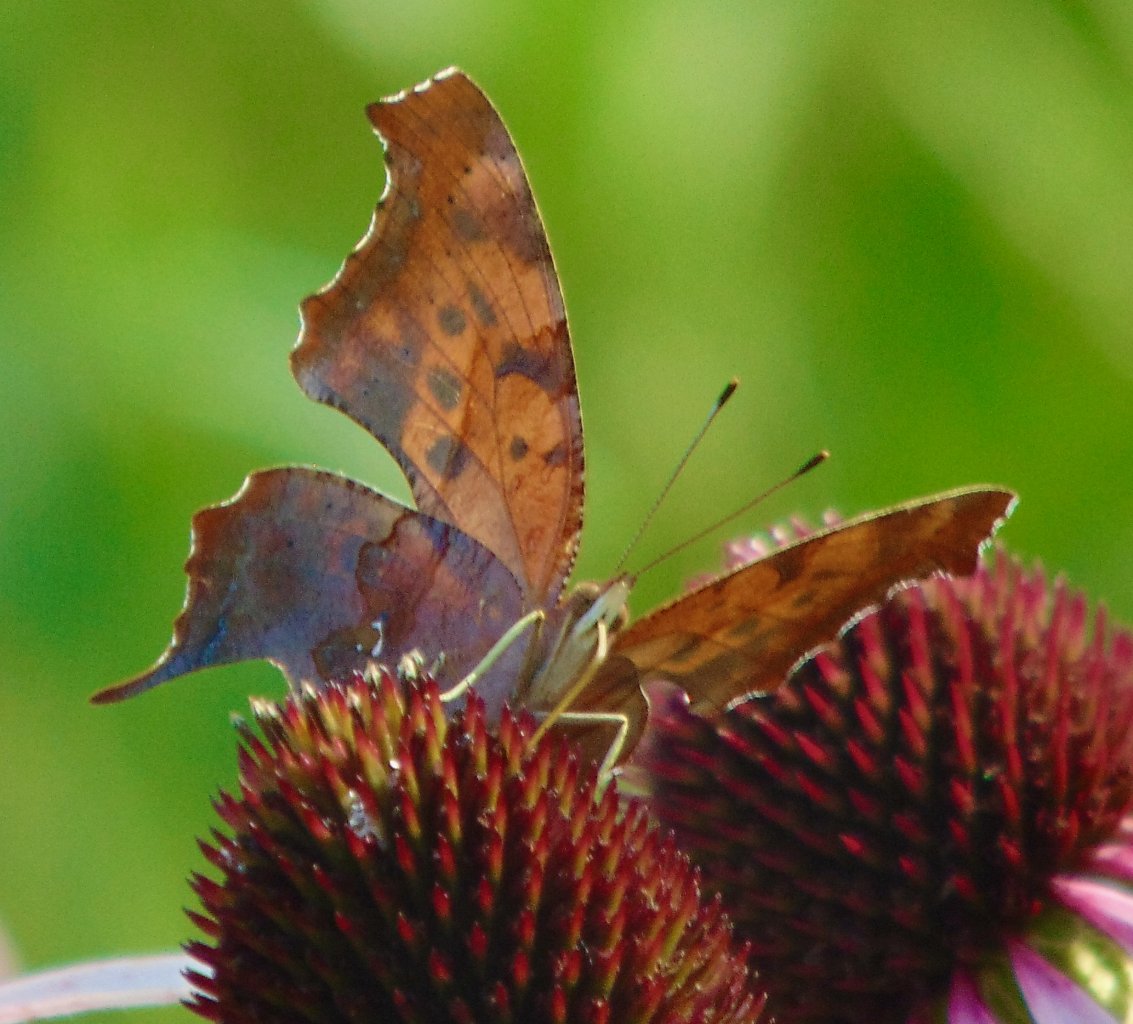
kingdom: Animalia
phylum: Arthropoda
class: Insecta
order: Lepidoptera
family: Nymphalidae
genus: Polygonia
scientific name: Polygonia interrogationis
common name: Question Mark
